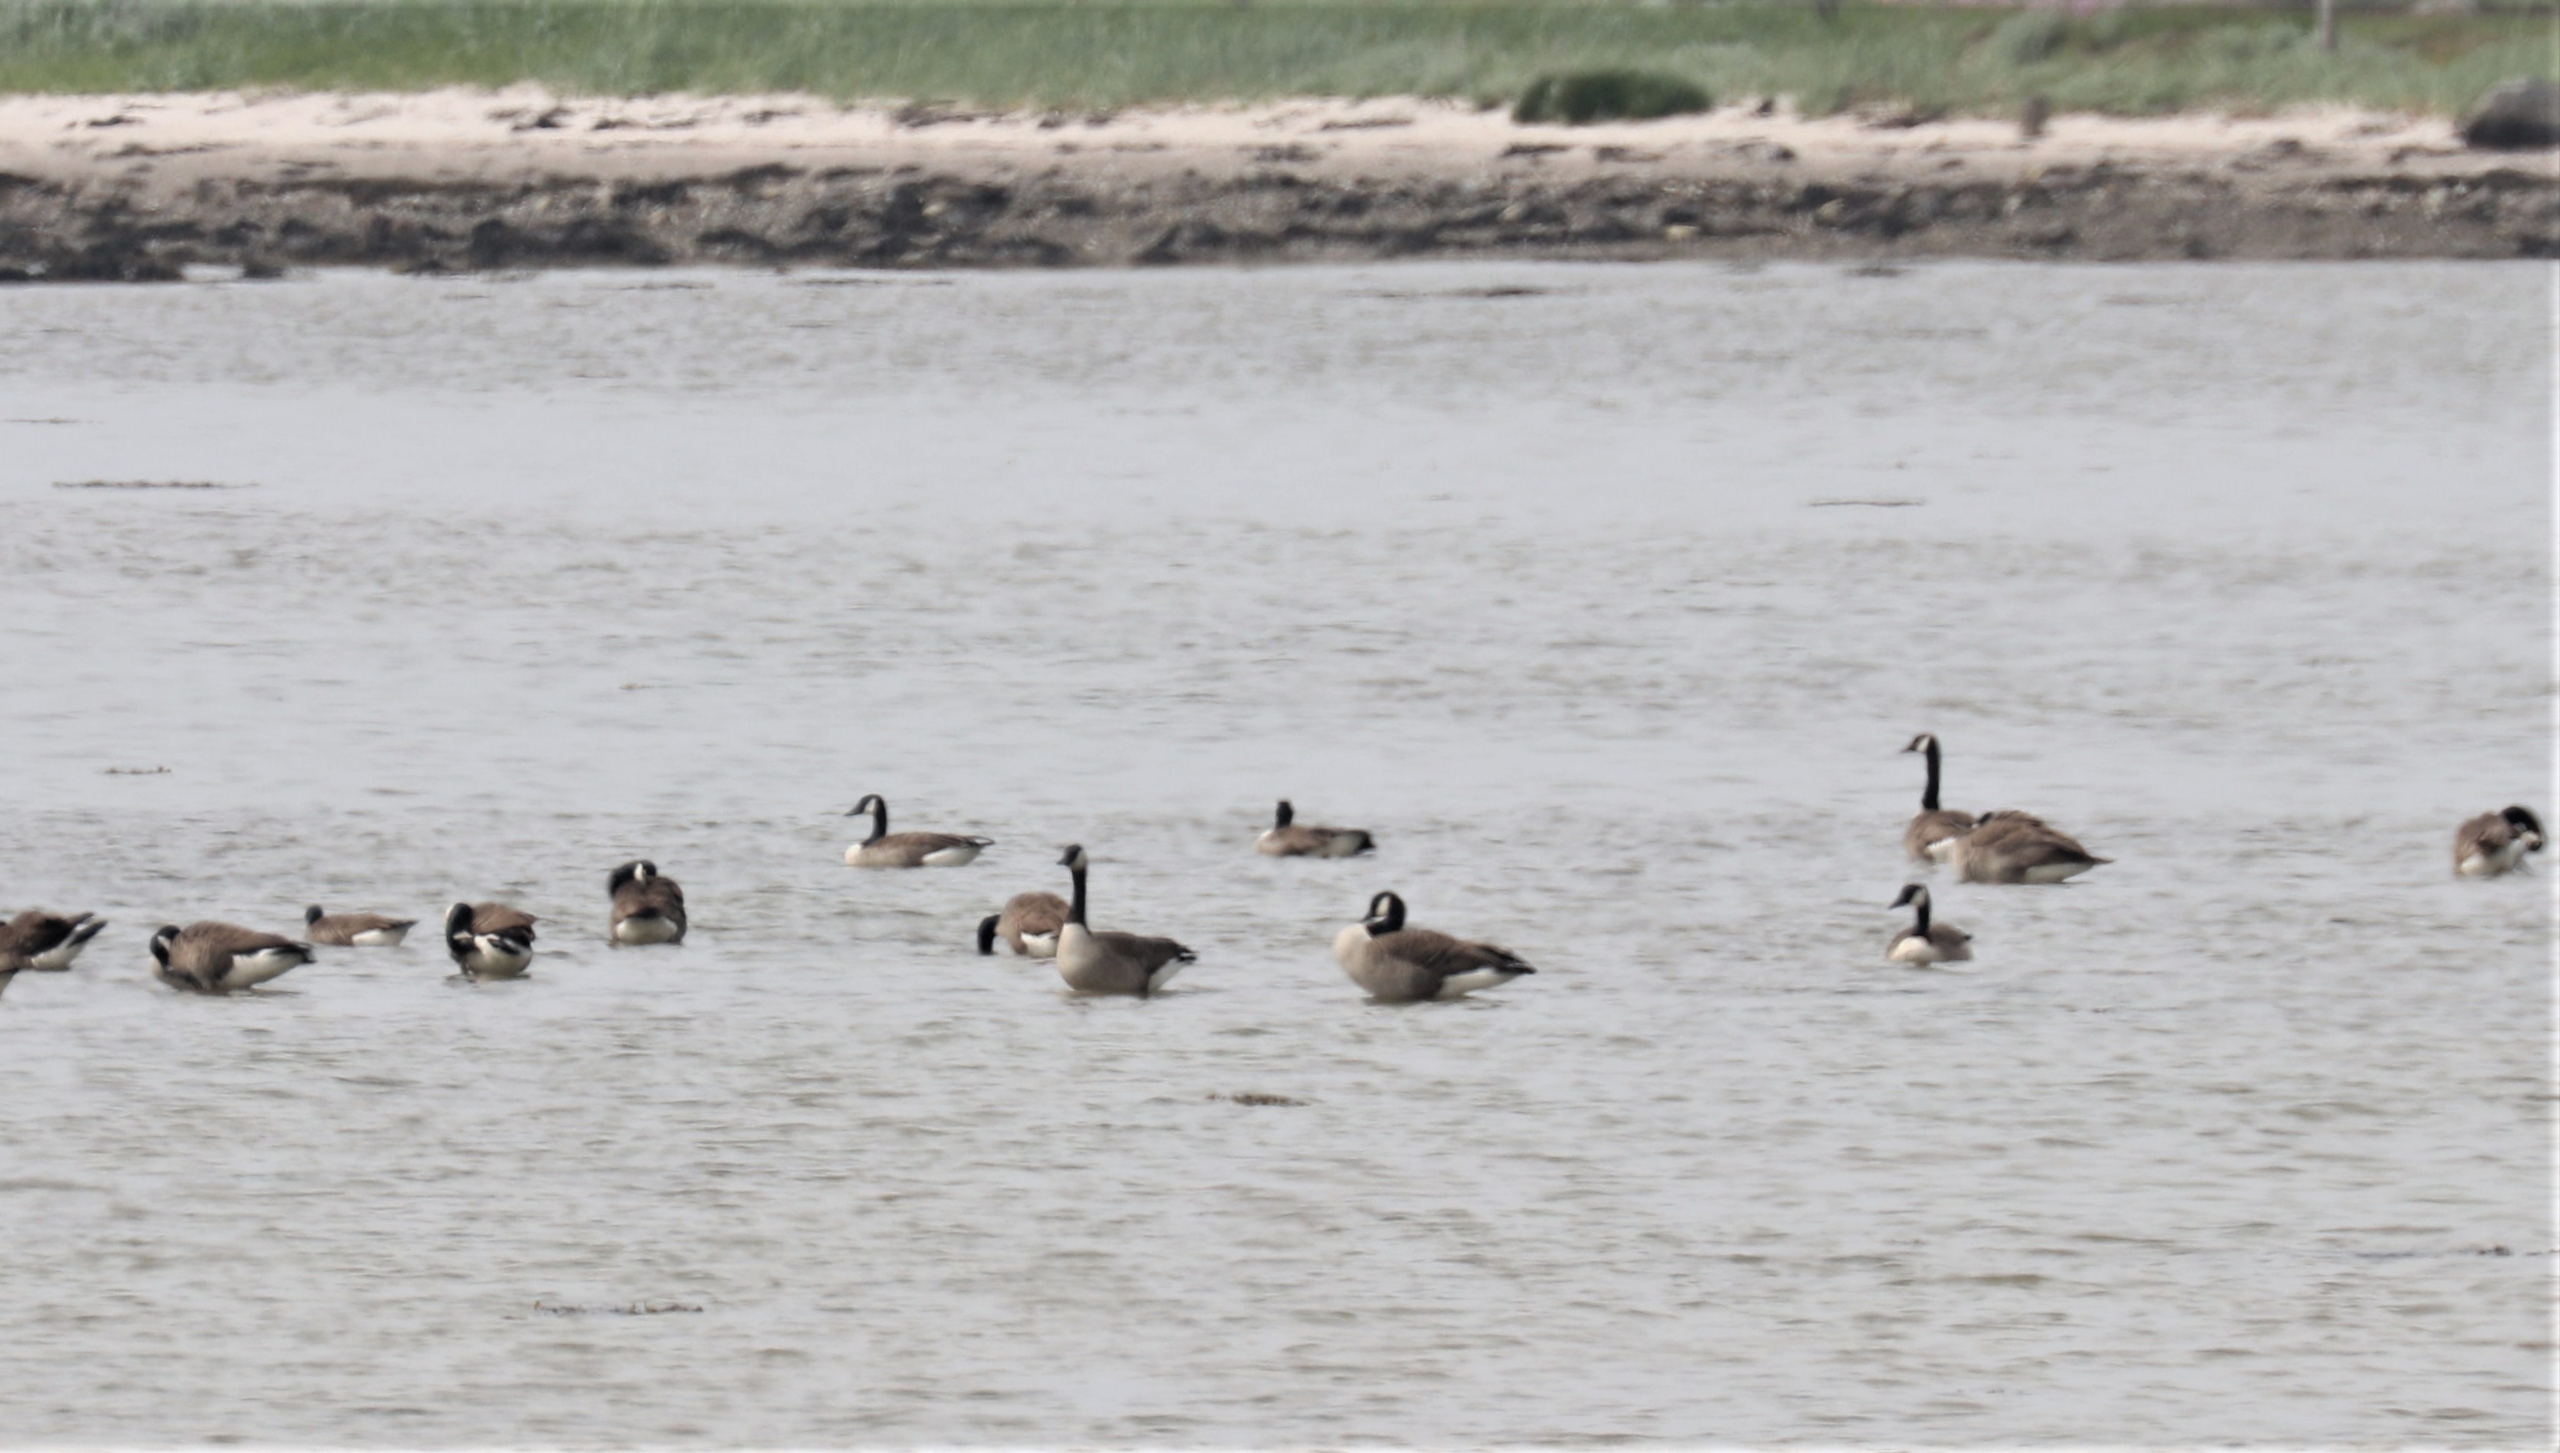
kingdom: Animalia
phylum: Chordata
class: Aves
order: Anseriformes
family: Anatidae
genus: Branta
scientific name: Branta canadensis
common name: Canadagås
